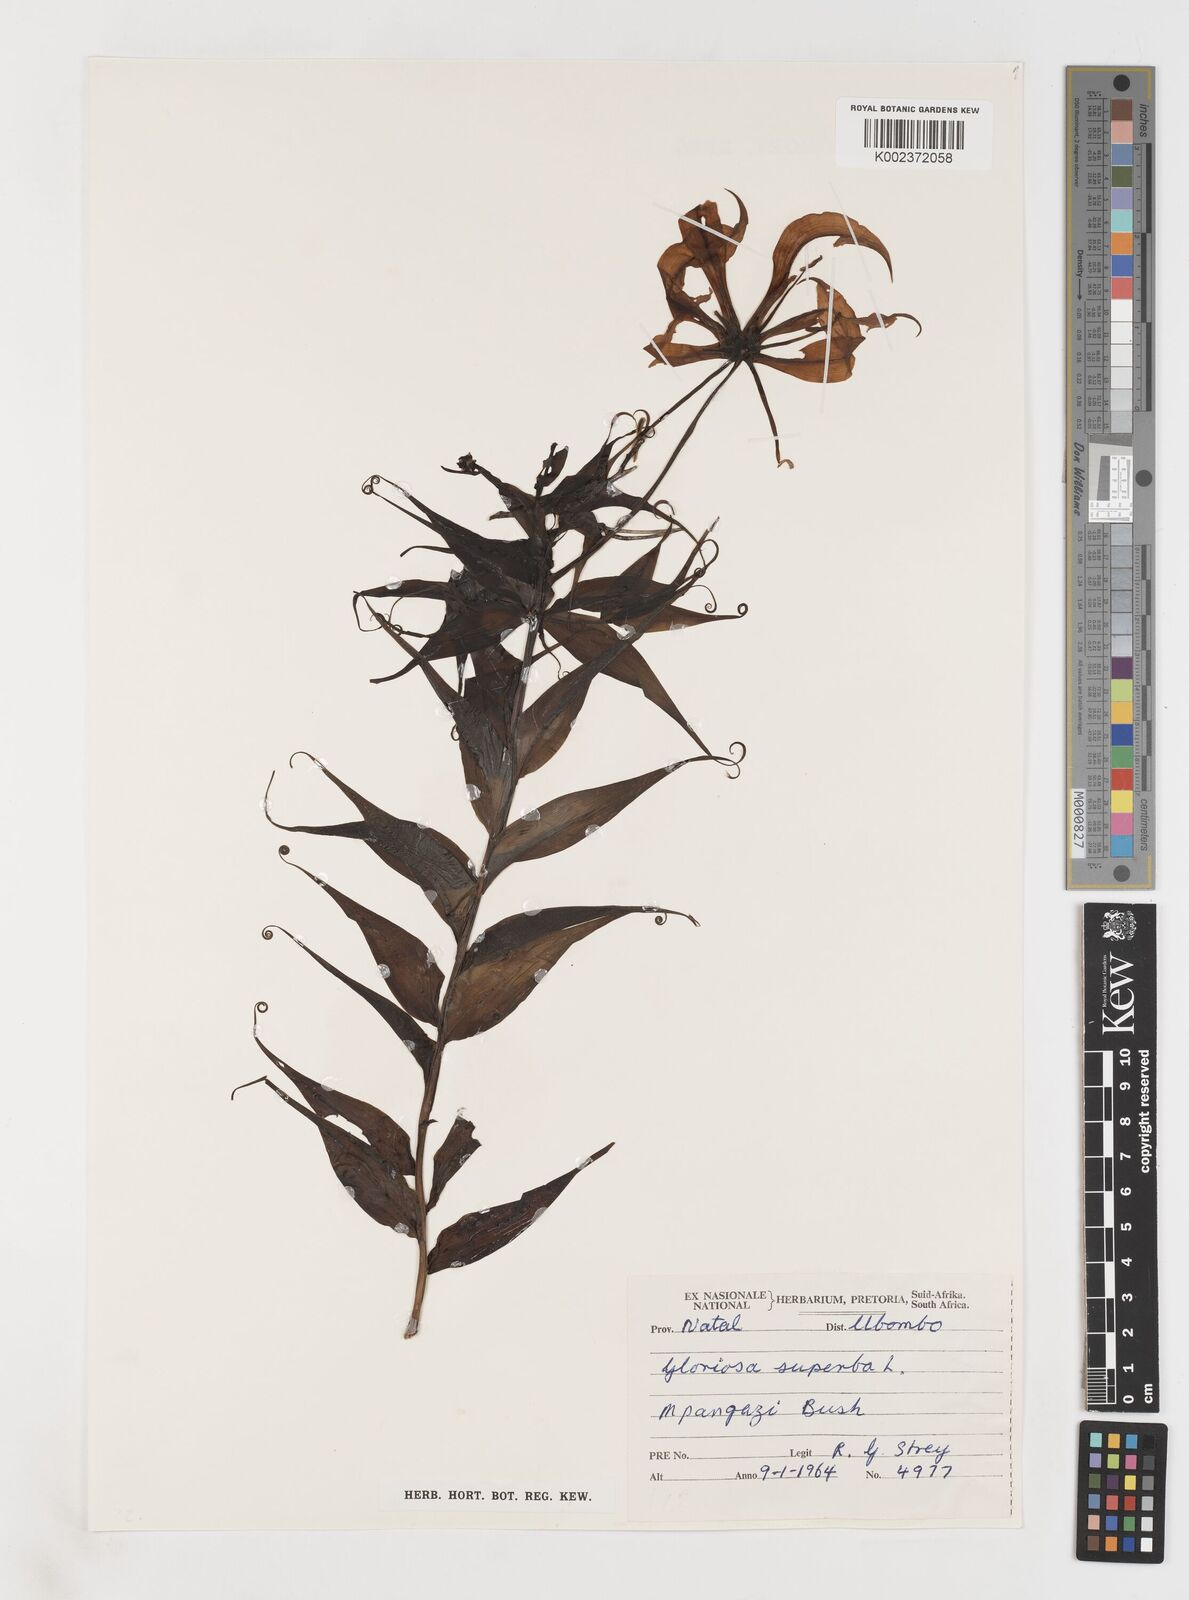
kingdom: Plantae
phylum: Tracheophyta
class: Liliopsida
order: Liliales
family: Colchicaceae
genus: Gloriosa
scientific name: Gloriosa simplex
